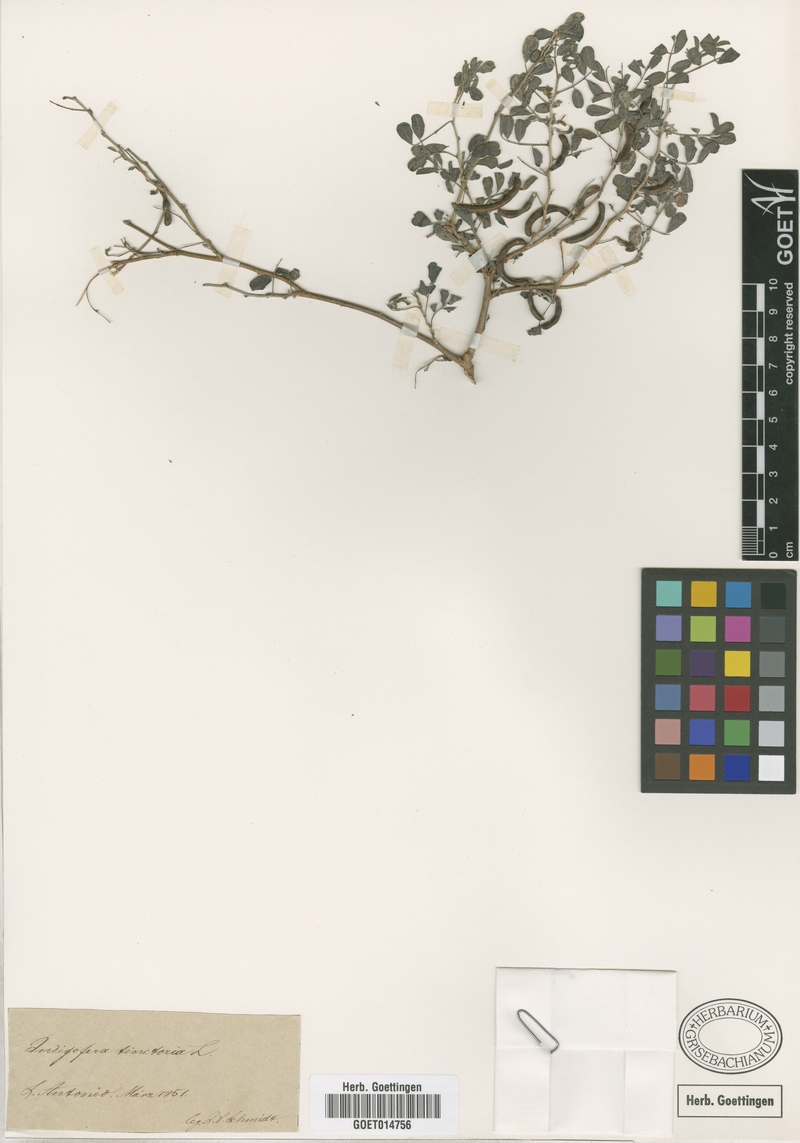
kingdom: Plantae
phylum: Tracheophyta
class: Magnoliopsida
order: Fabales
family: Fabaceae
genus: Indigofera
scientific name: Indigofera tinctoria
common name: True indigo
